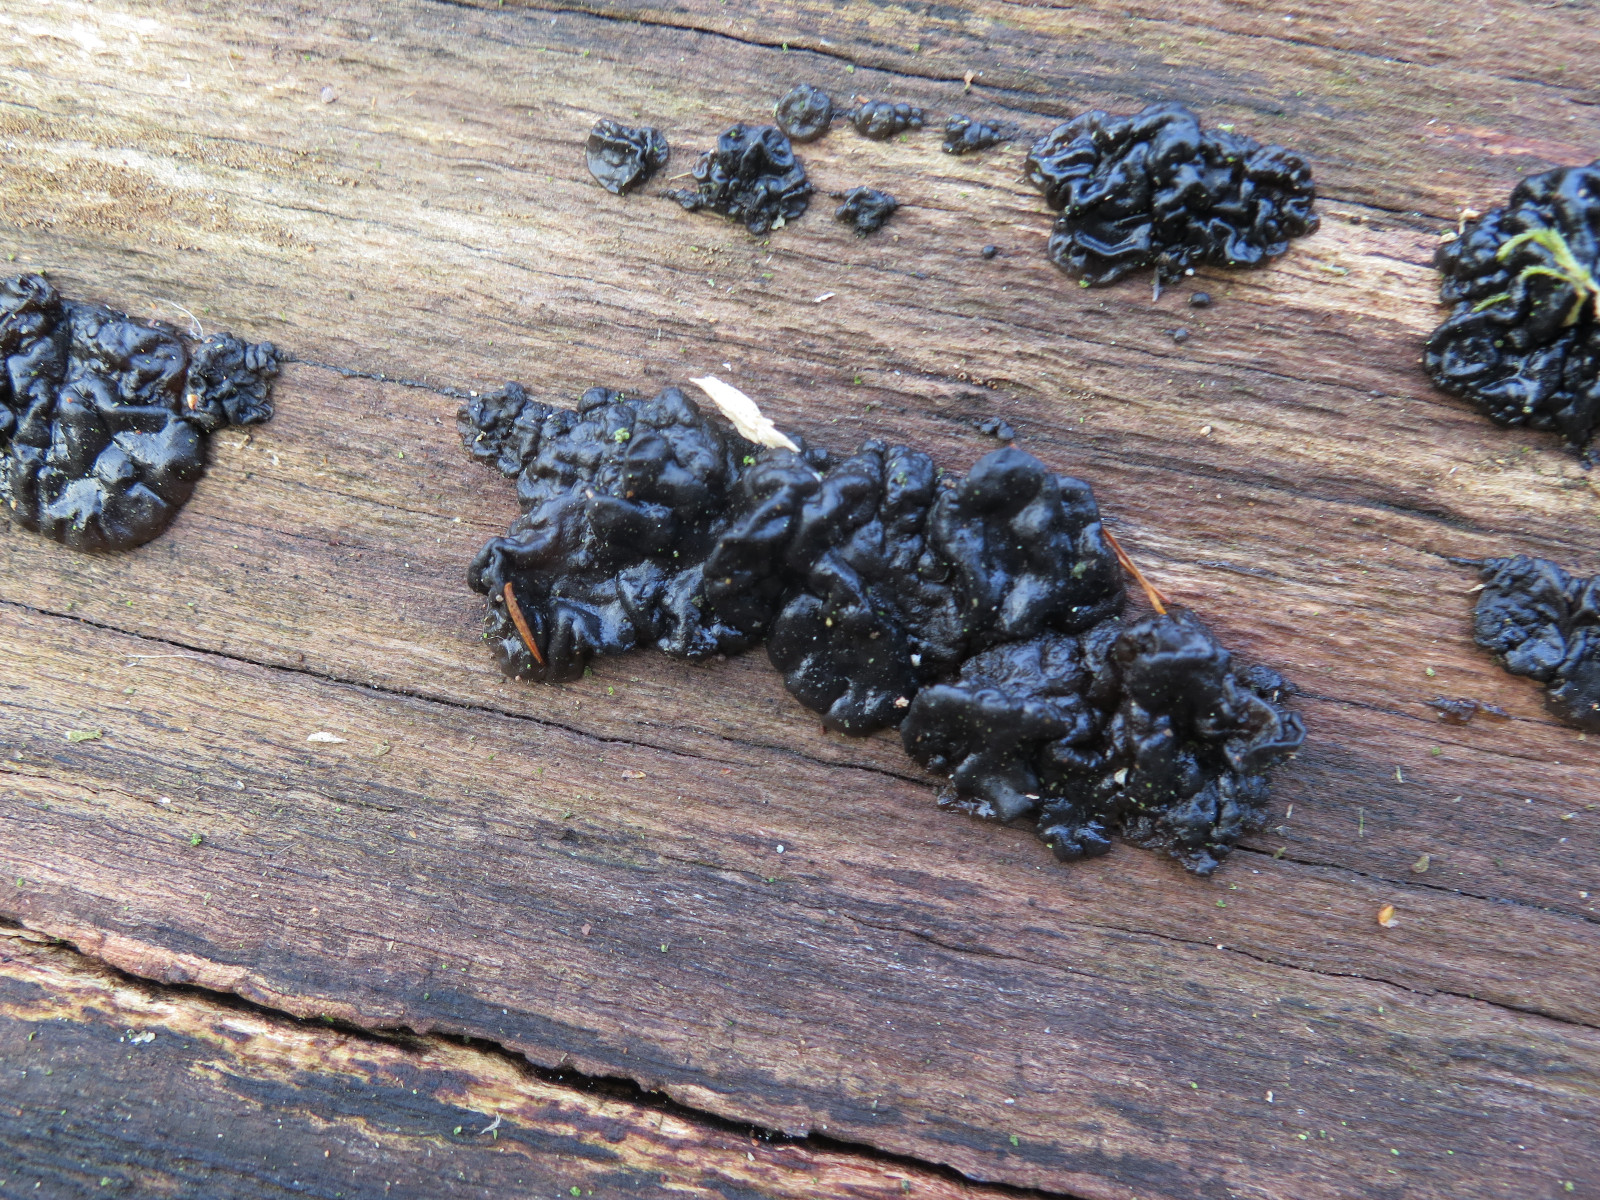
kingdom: Fungi
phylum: Basidiomycota
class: Agaricomycetes
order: Auriculariales
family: Auriculariaceae
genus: Exidia
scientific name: Exidia nigricans
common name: almindelig bævretop
